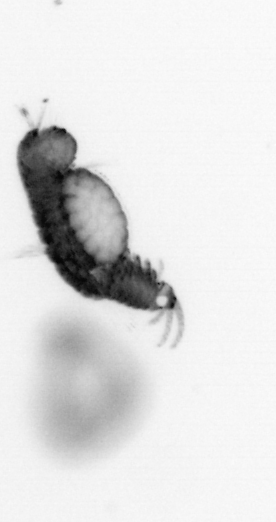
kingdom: Animalia
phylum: Annelida
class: Polychaeta
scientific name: Polychaeta
